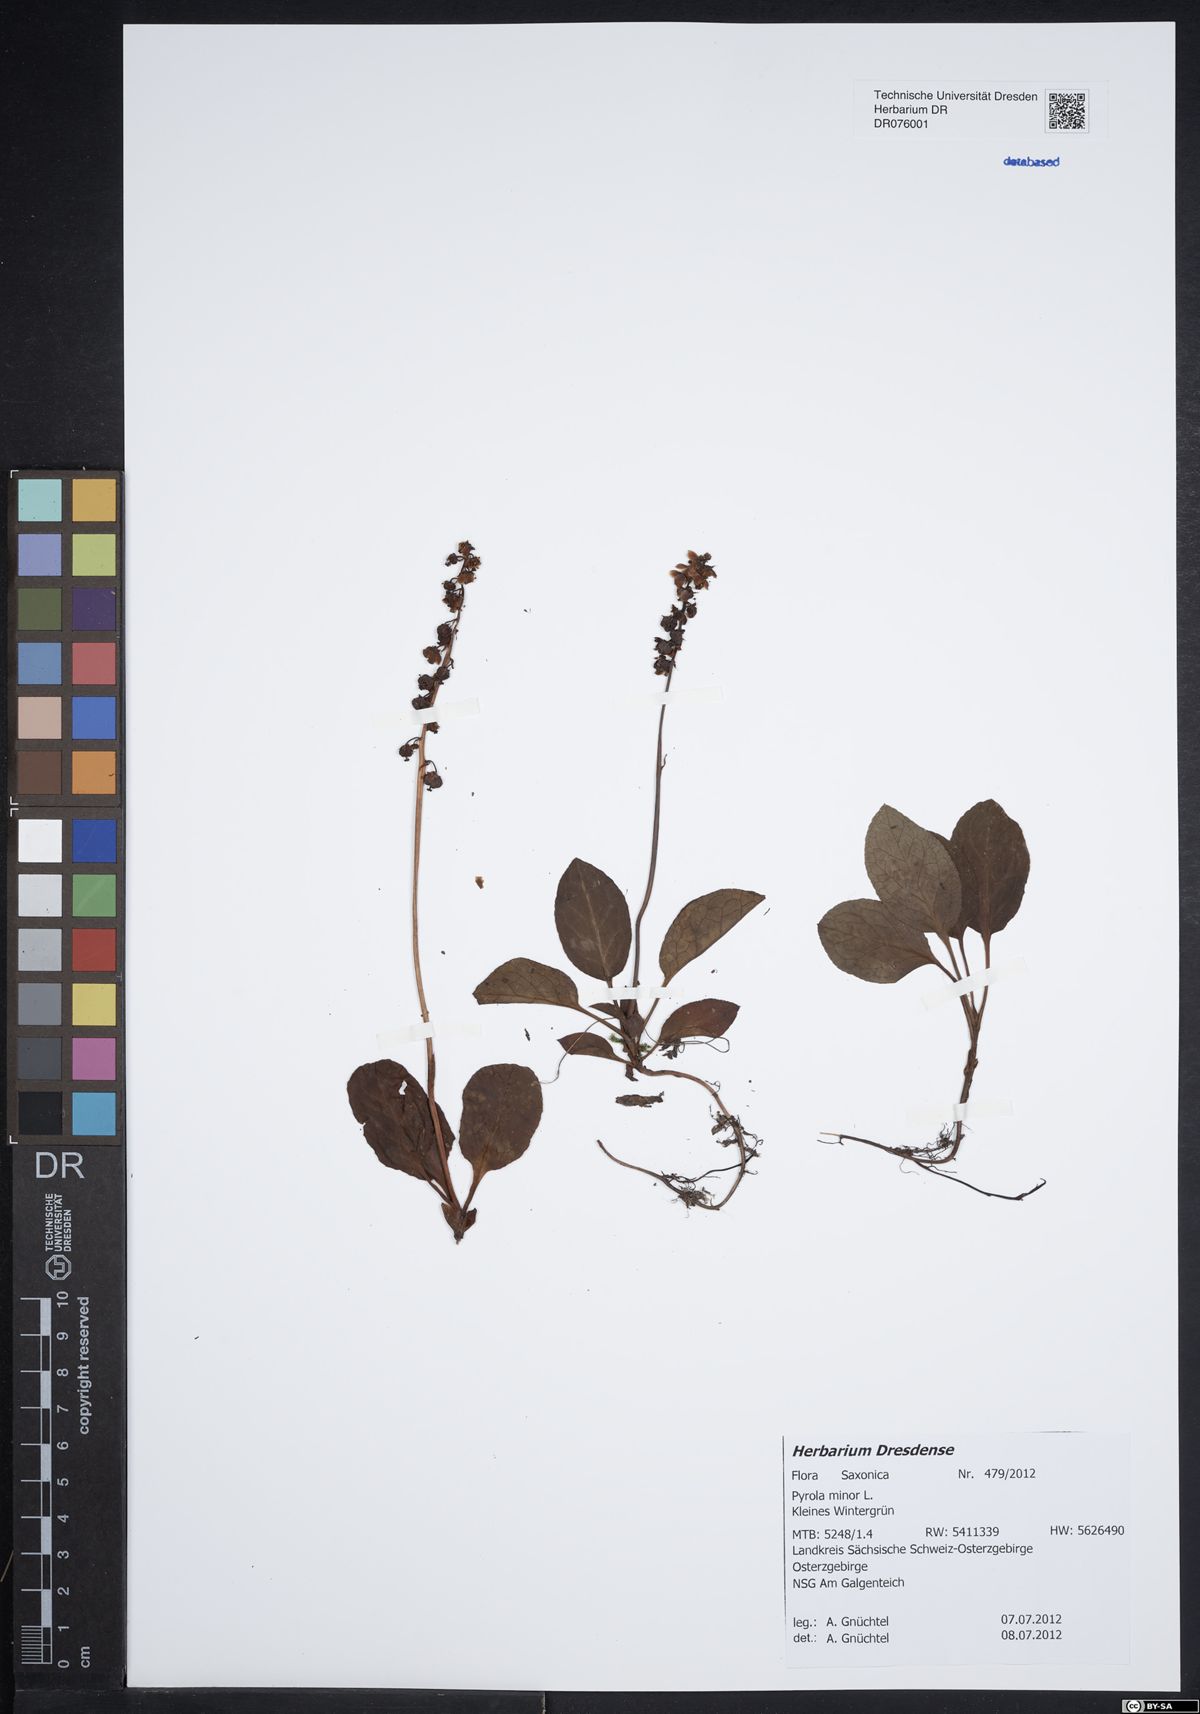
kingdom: Plantae
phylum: Tracheophyta
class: Magnoliopsida
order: Ericales
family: Ericaceae
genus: Pyrola
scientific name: Pyrola minor
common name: Common wintergreen
